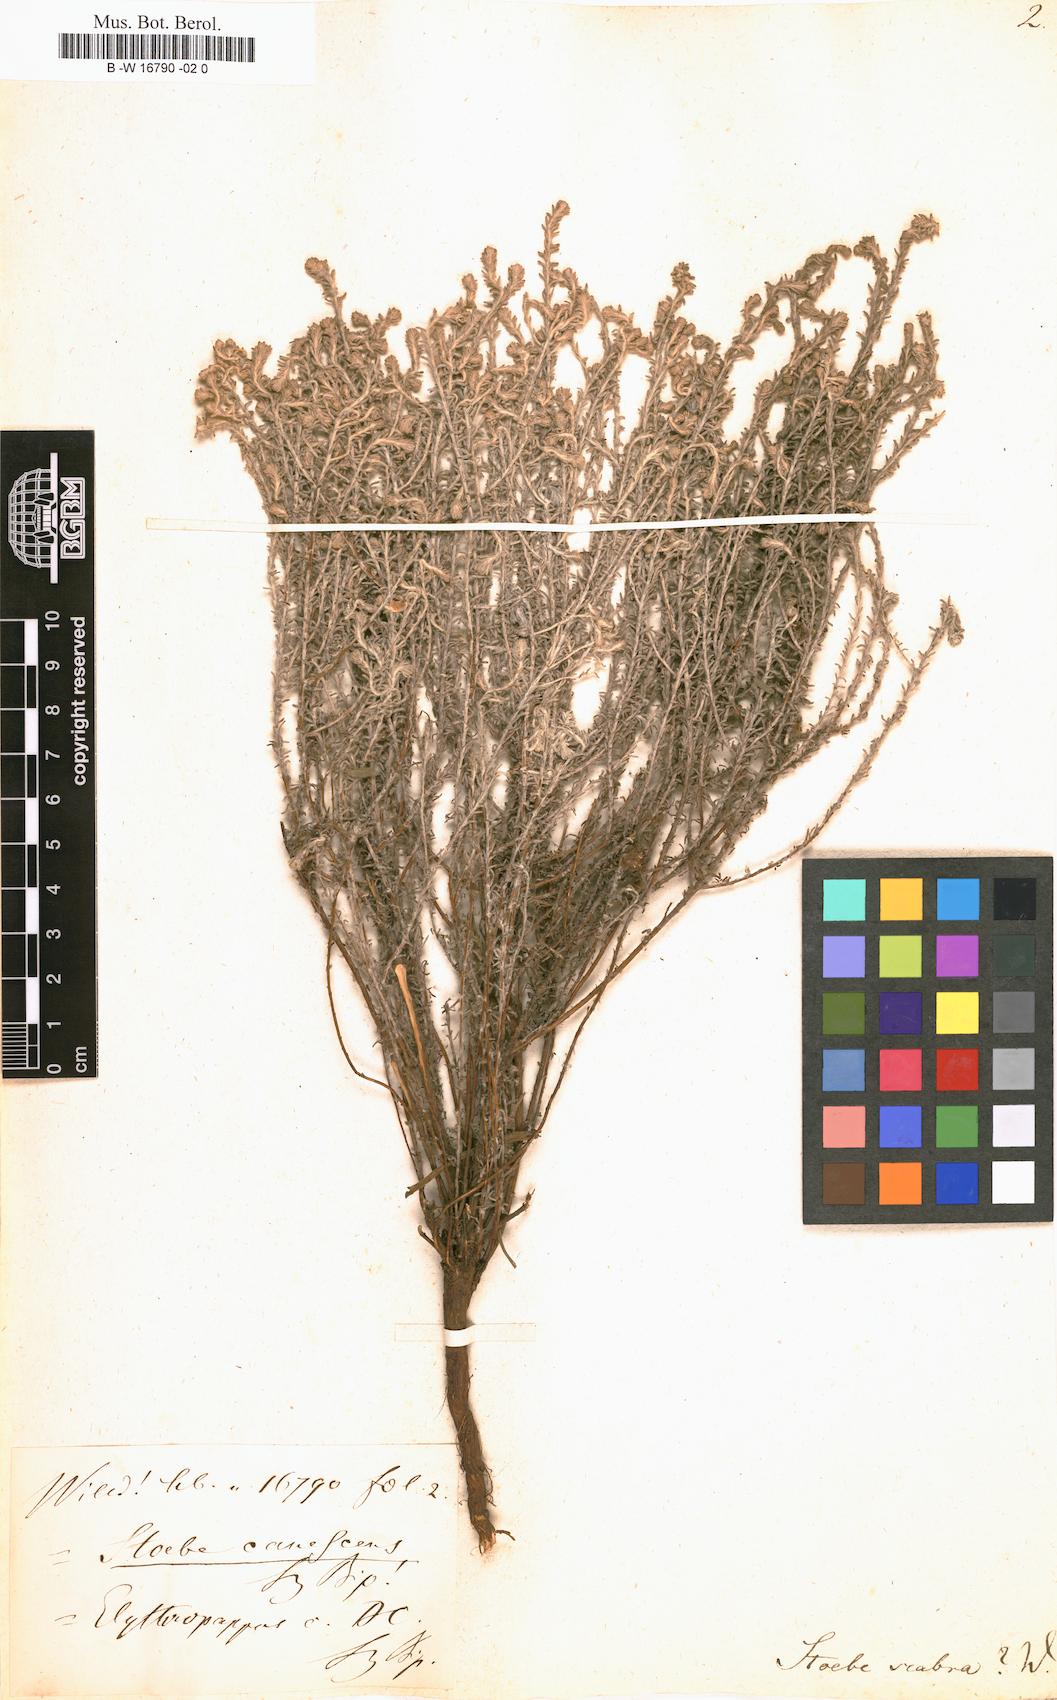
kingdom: Plantae
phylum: Tracheophyta
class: Magnoliopsida
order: Asterales
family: Asteraceae
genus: Myrovernix
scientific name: Myrovernix
